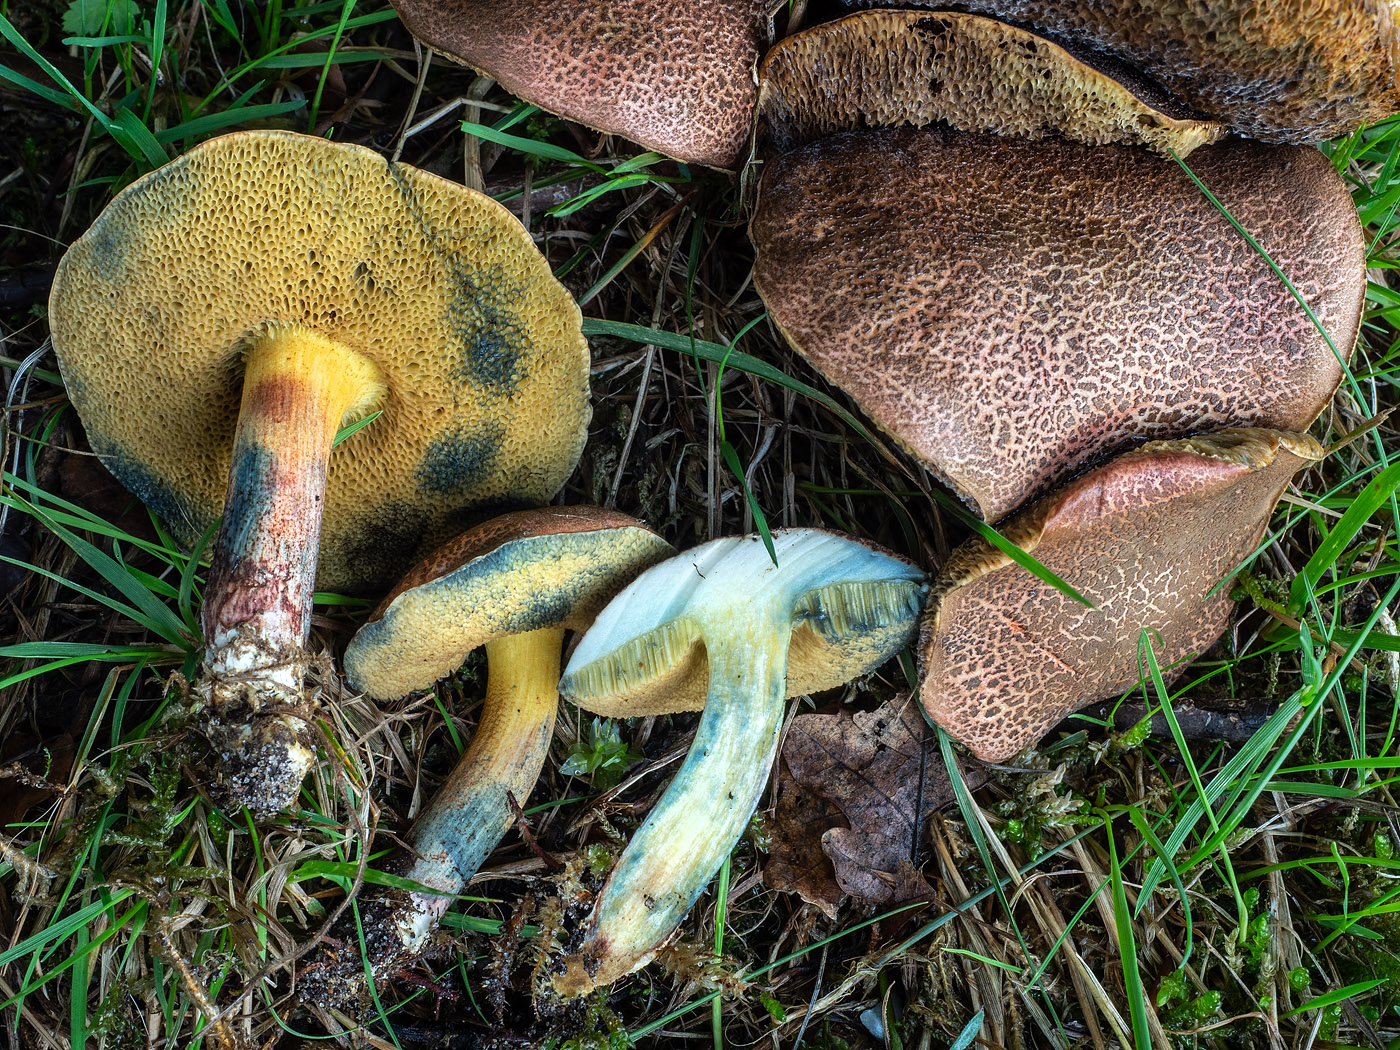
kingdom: Fungi
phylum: Basidiomycota
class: Agaricomycetes
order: Boletales
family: Boletaceae
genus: Xerocomellus
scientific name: Xerocomellus cisalpinus
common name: finsprukken rørhat
